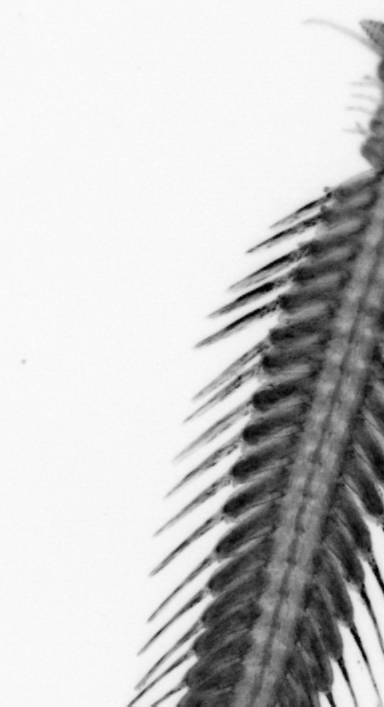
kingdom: Animalia
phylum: Annelida
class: Polychaeta
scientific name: Polychaeta
